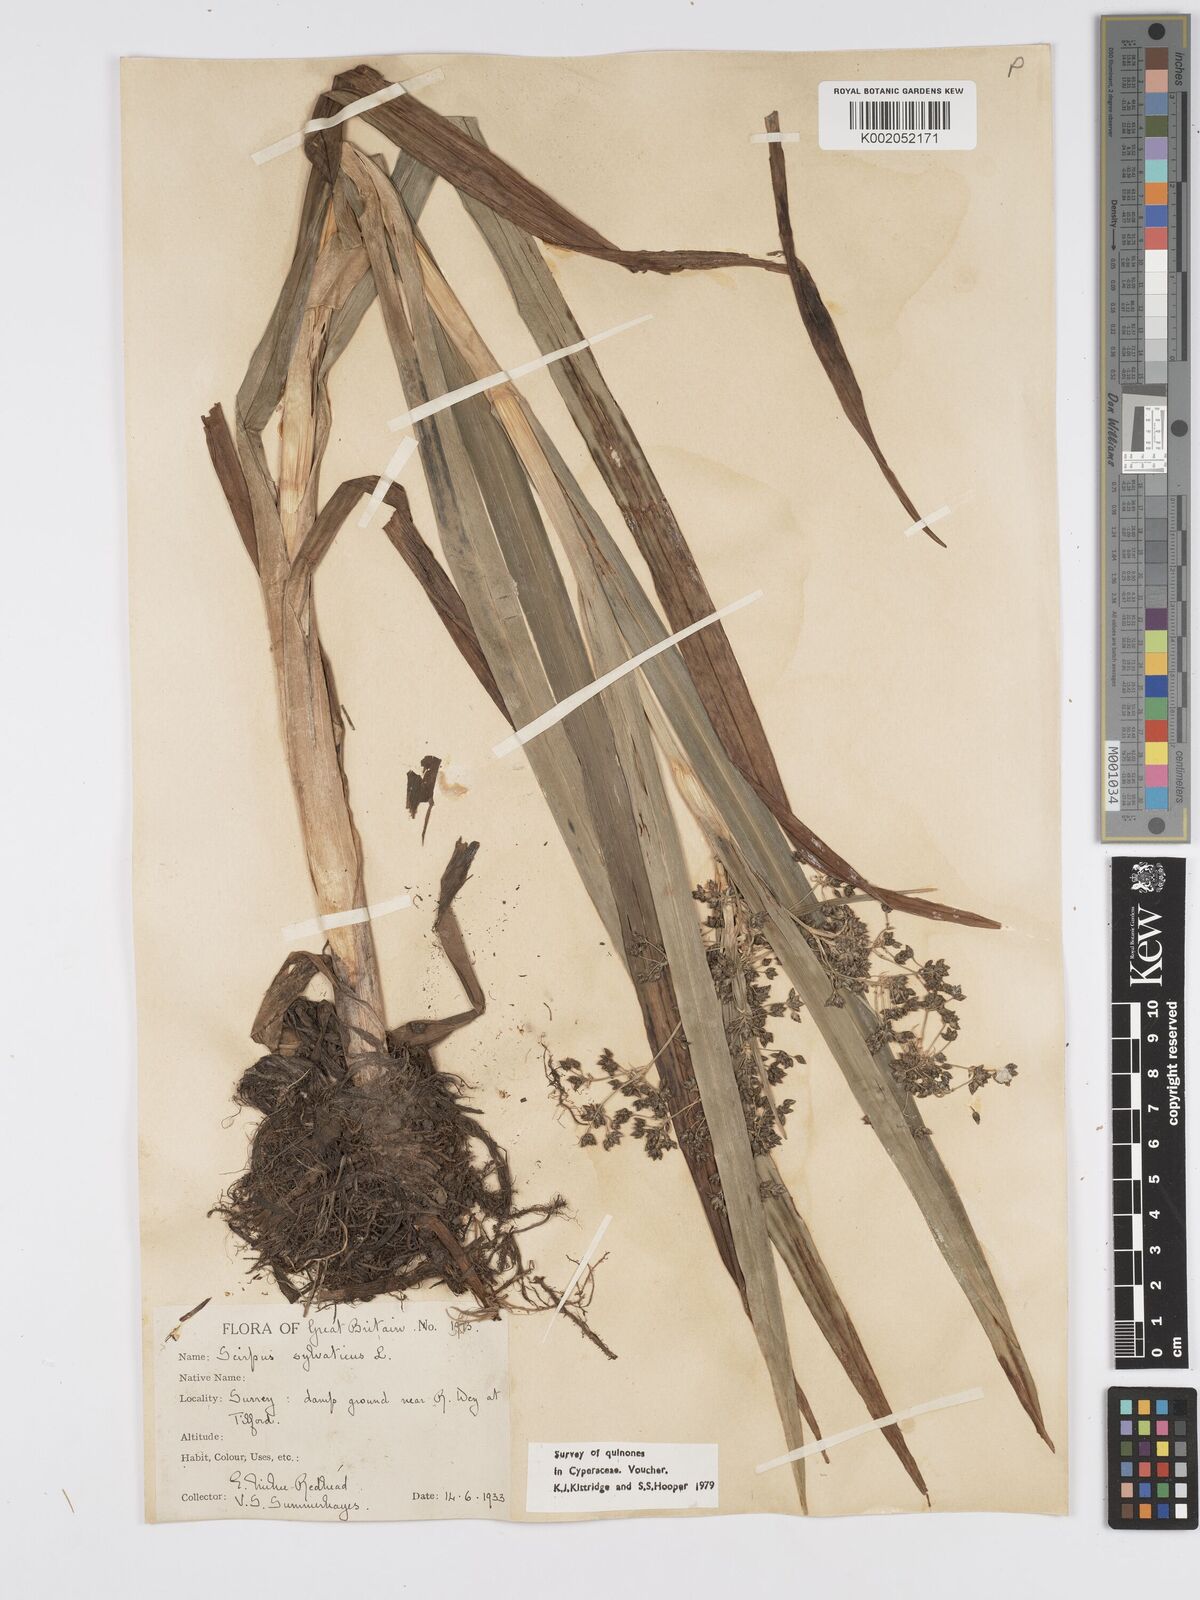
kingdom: Plantae
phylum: Tracheophyta
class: Liliopsida
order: Poales
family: Cyperaceae
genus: Scirpus
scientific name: Scirpus sylvaticus
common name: Wood club-rush
